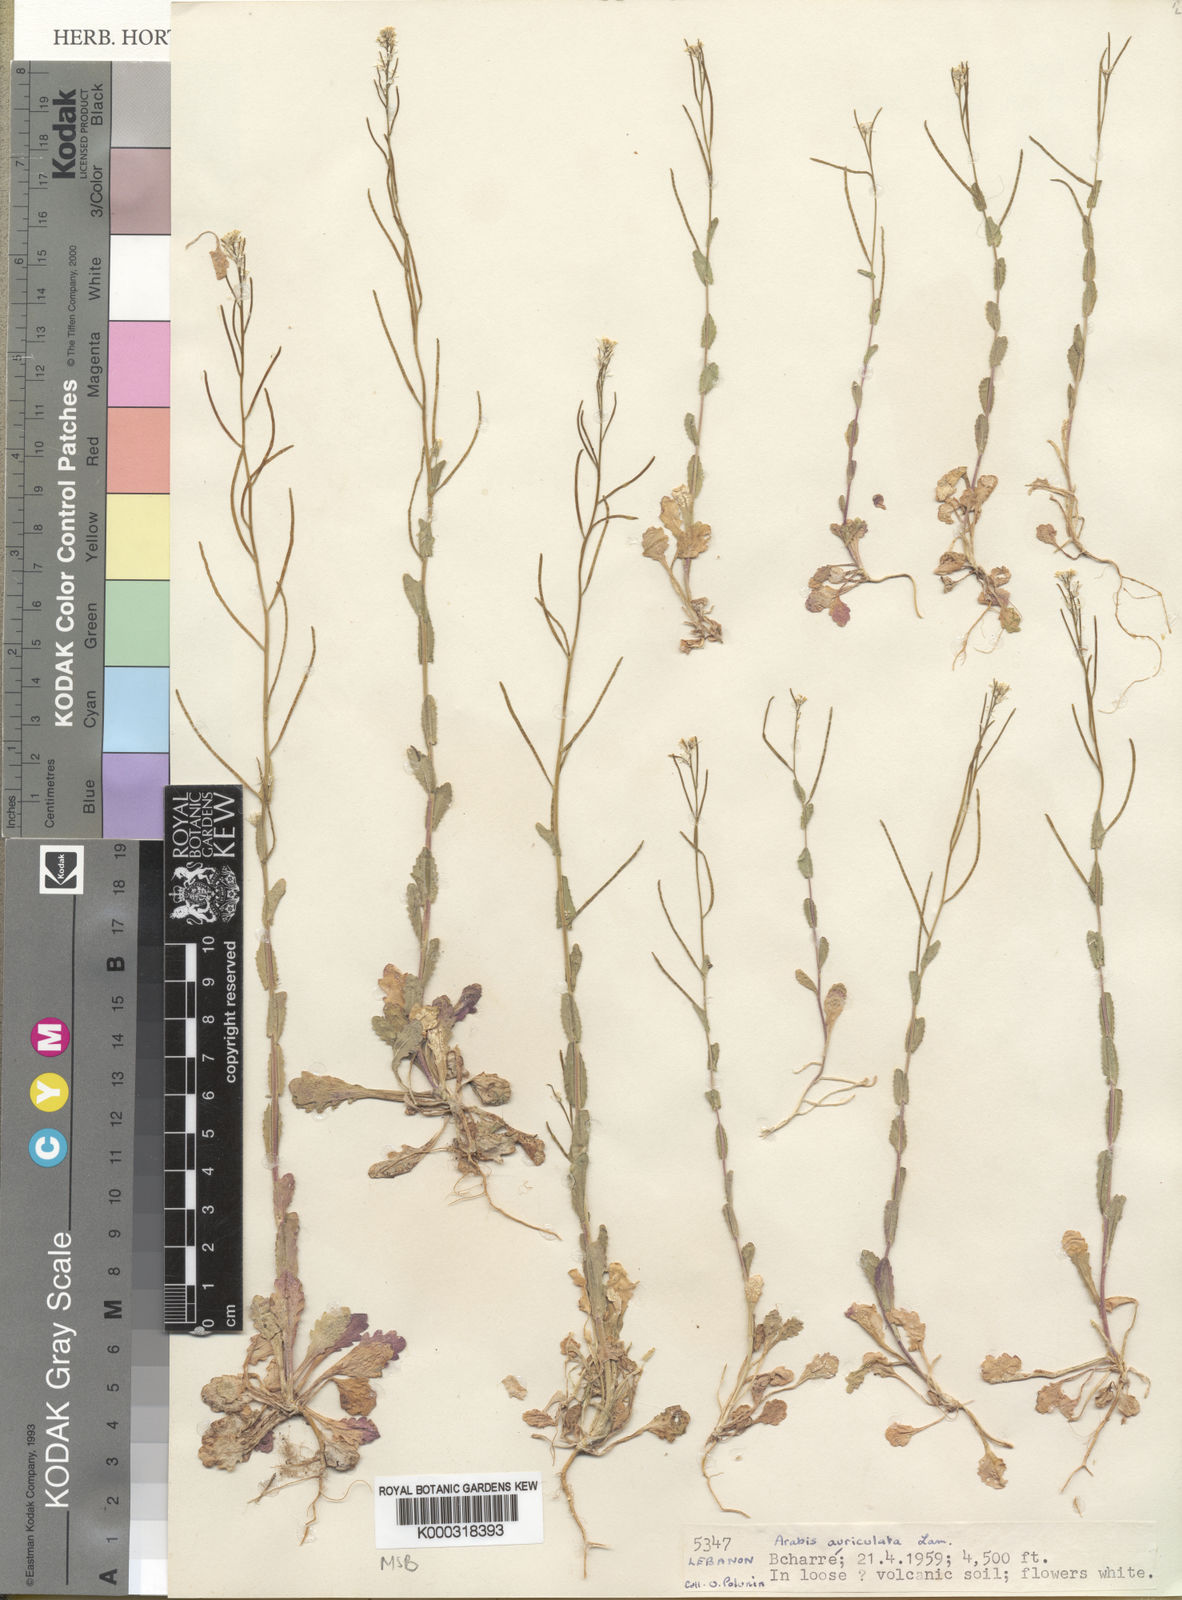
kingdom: Plantae
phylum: Tracheophyta
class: Magnoliopsida
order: Brassicales
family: Brassicaceae
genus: Arabis
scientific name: Arabis nova
